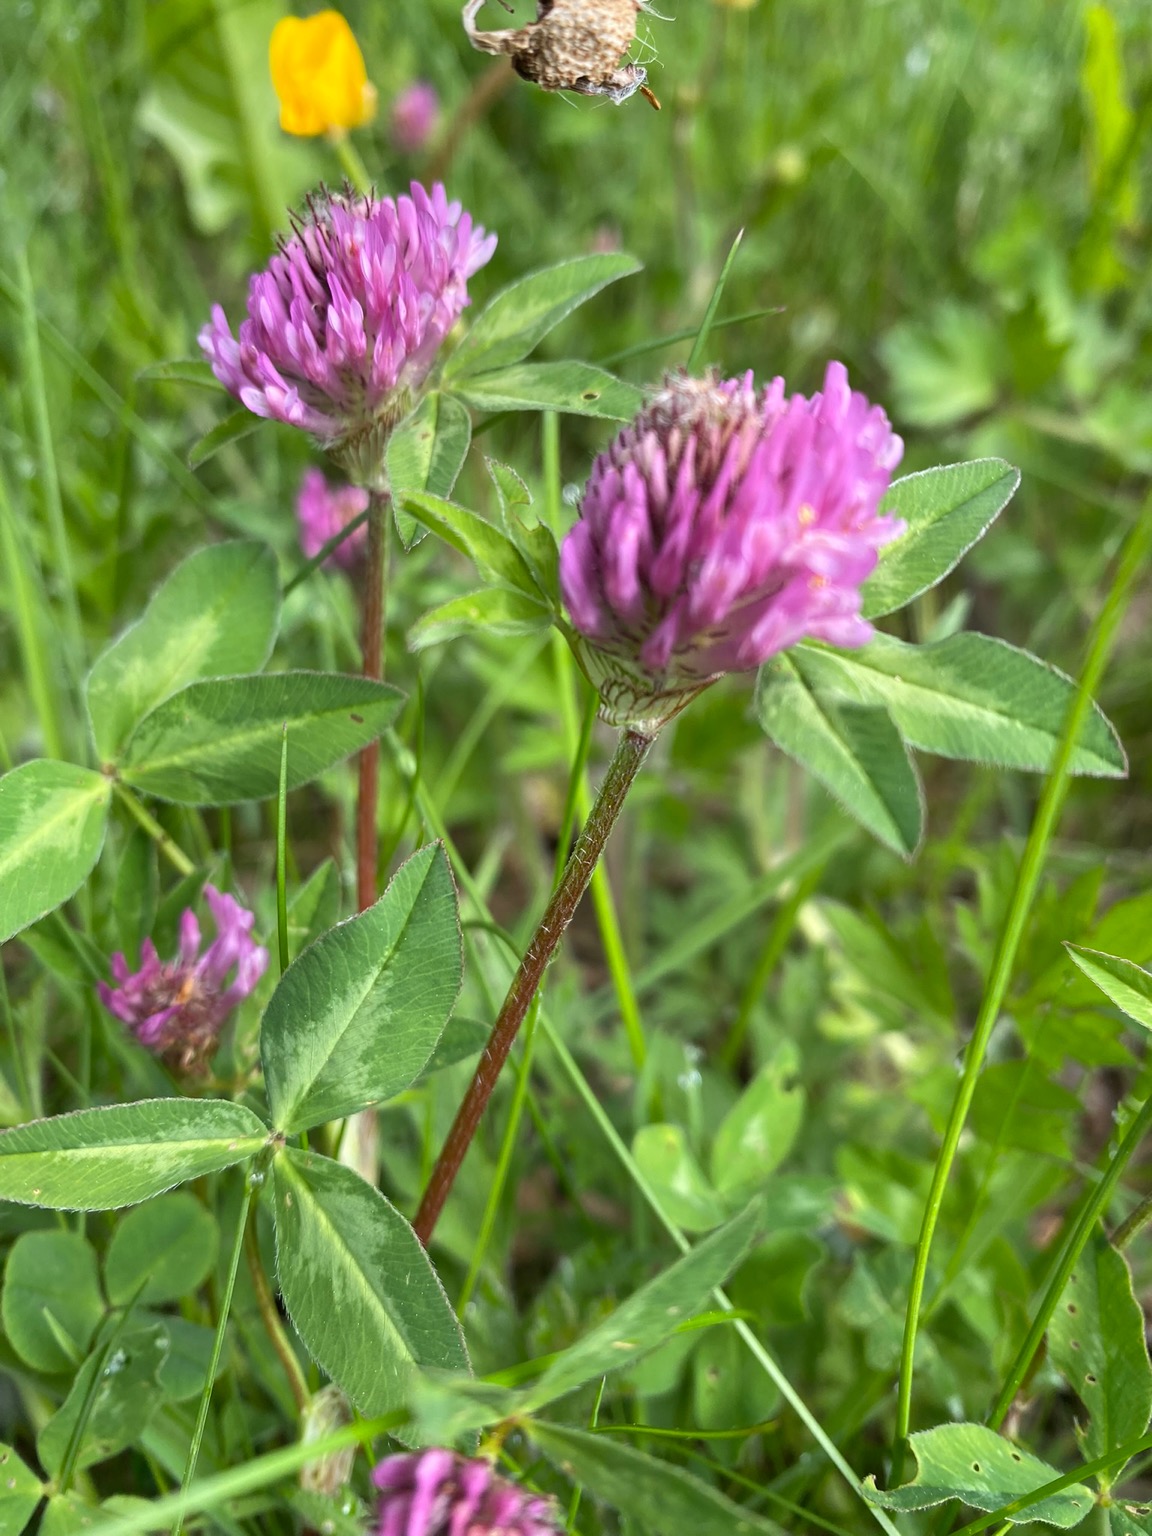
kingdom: Plantae
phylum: Tracheophyta
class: Magnoliopsida
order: Fabales
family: Fabaceae
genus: Trifolium
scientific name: Trifolium pratense
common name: Rød-kløver
